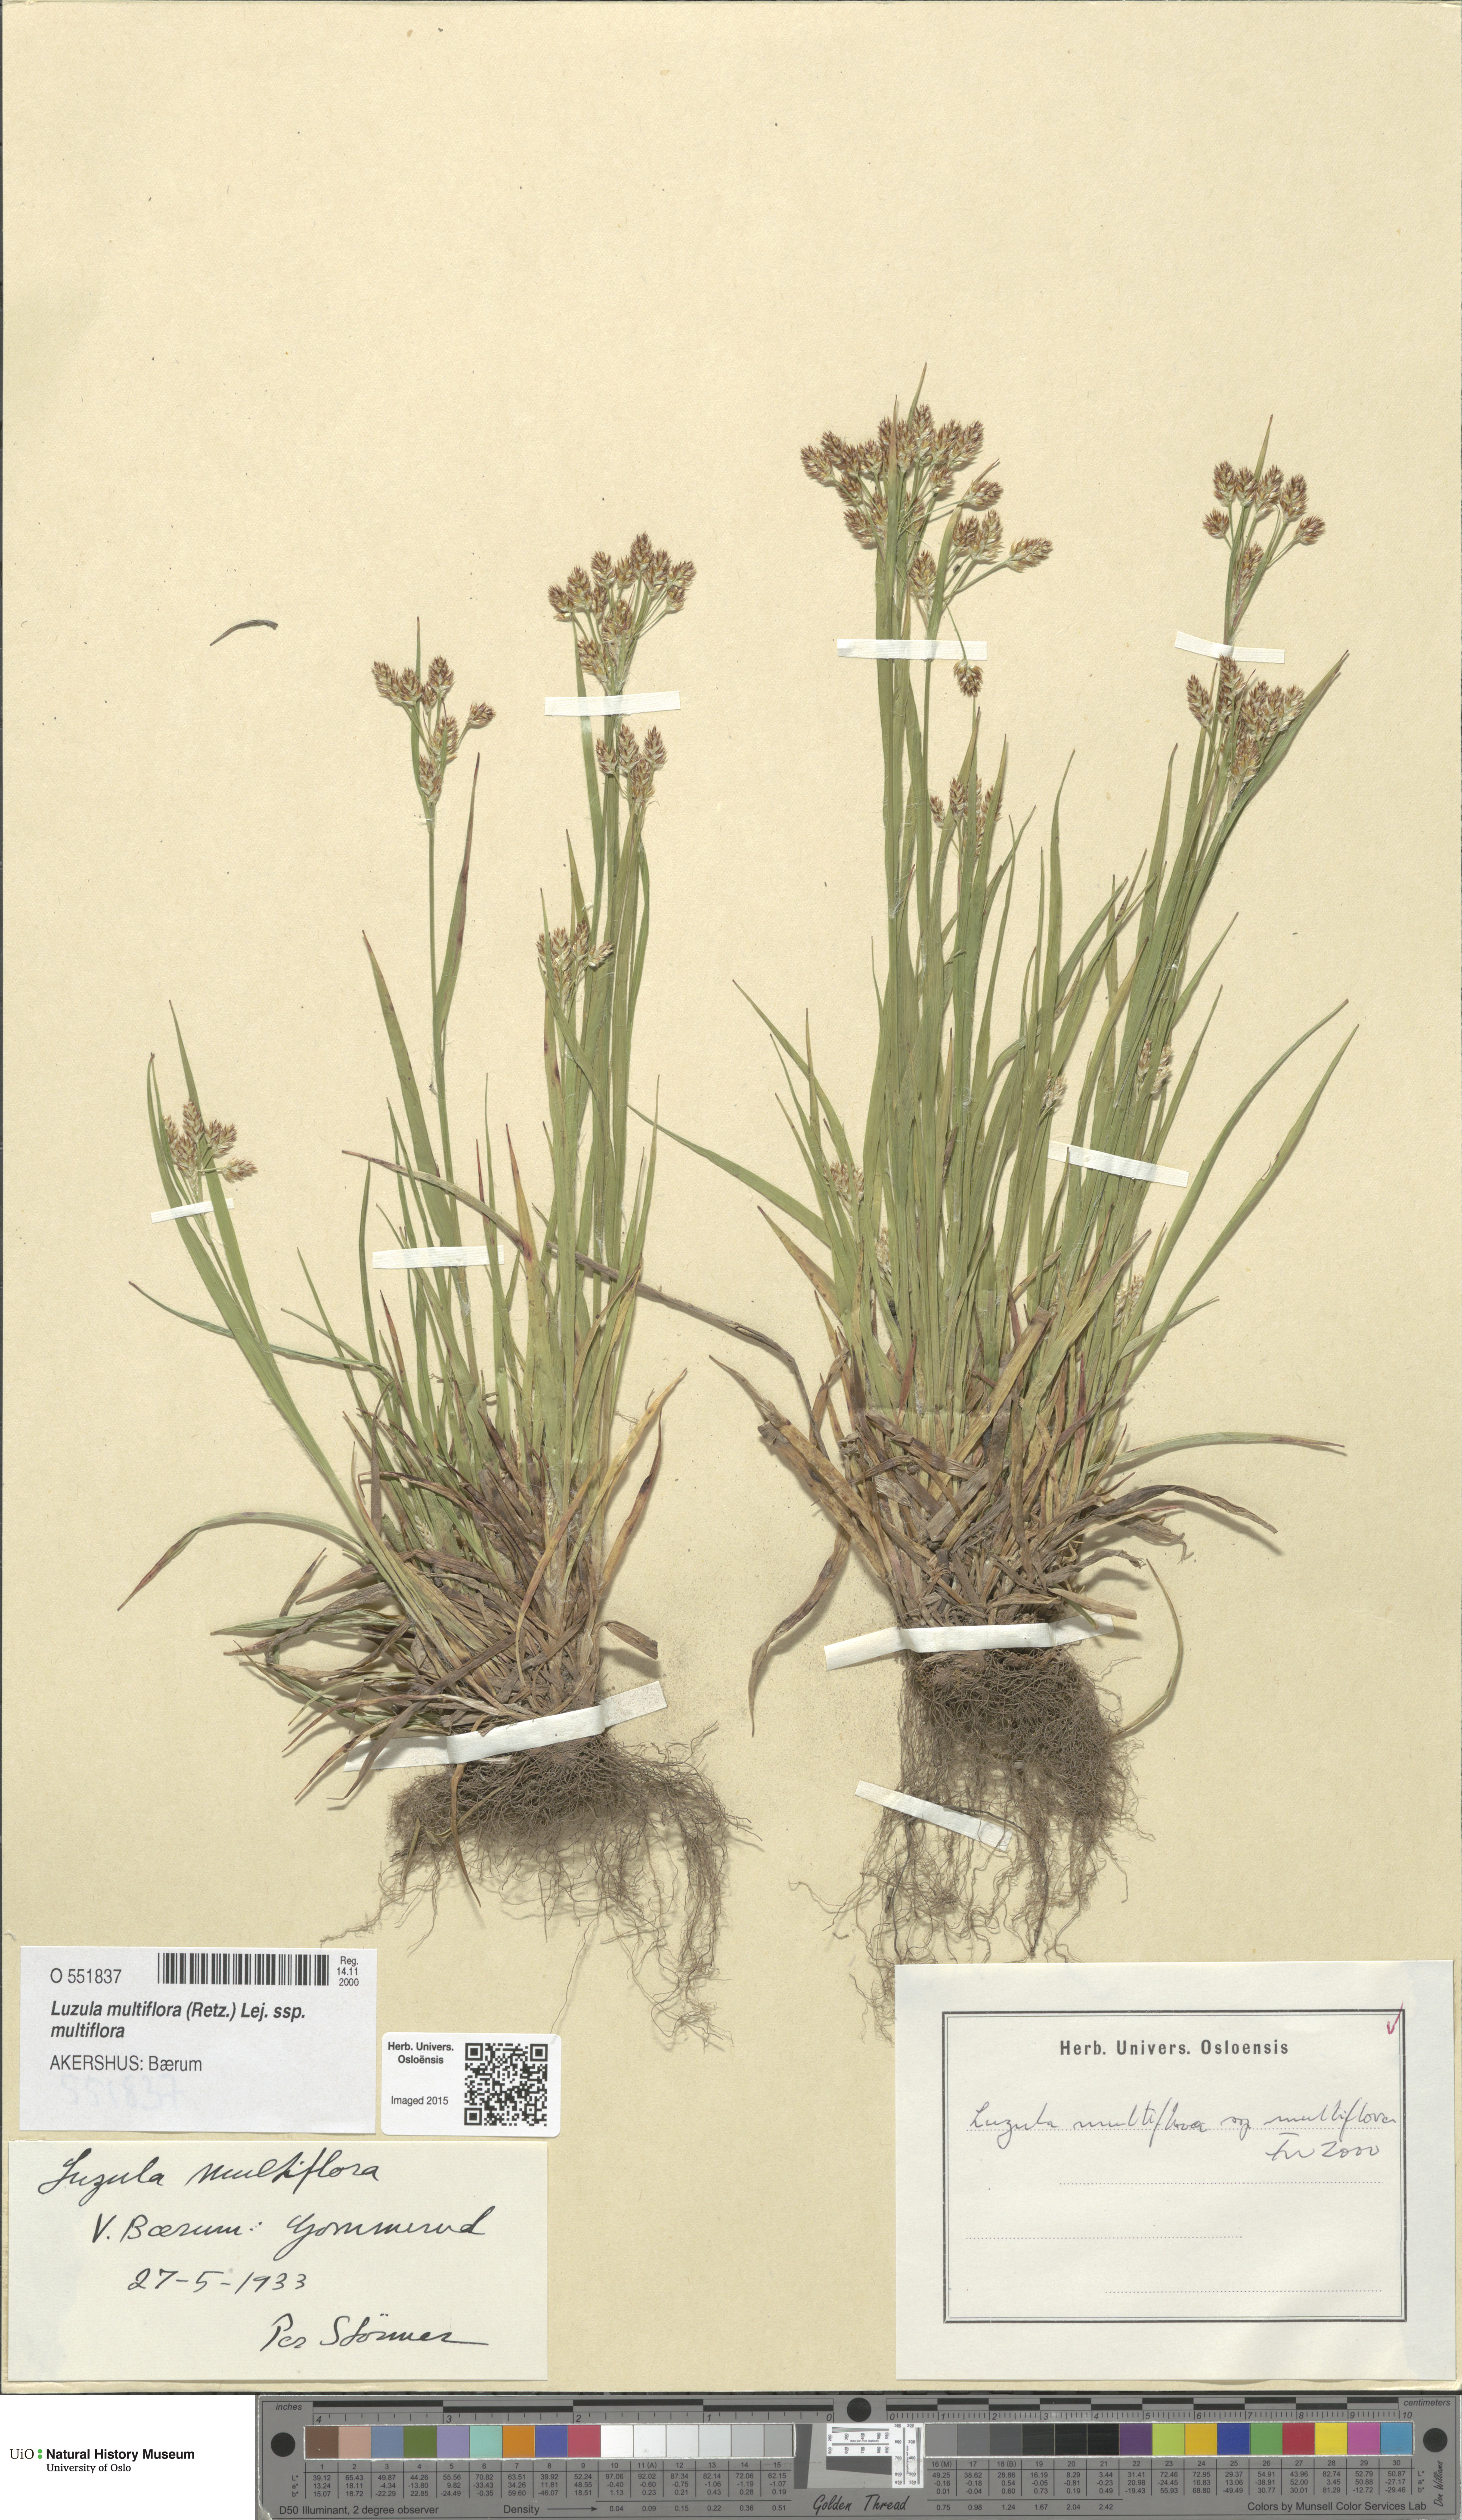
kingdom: Plantae
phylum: Tracheophyta
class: Liliopsida
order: Poales
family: Juncaceae
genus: Luzula
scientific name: Luzula multiflora
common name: Heath wood-rush
